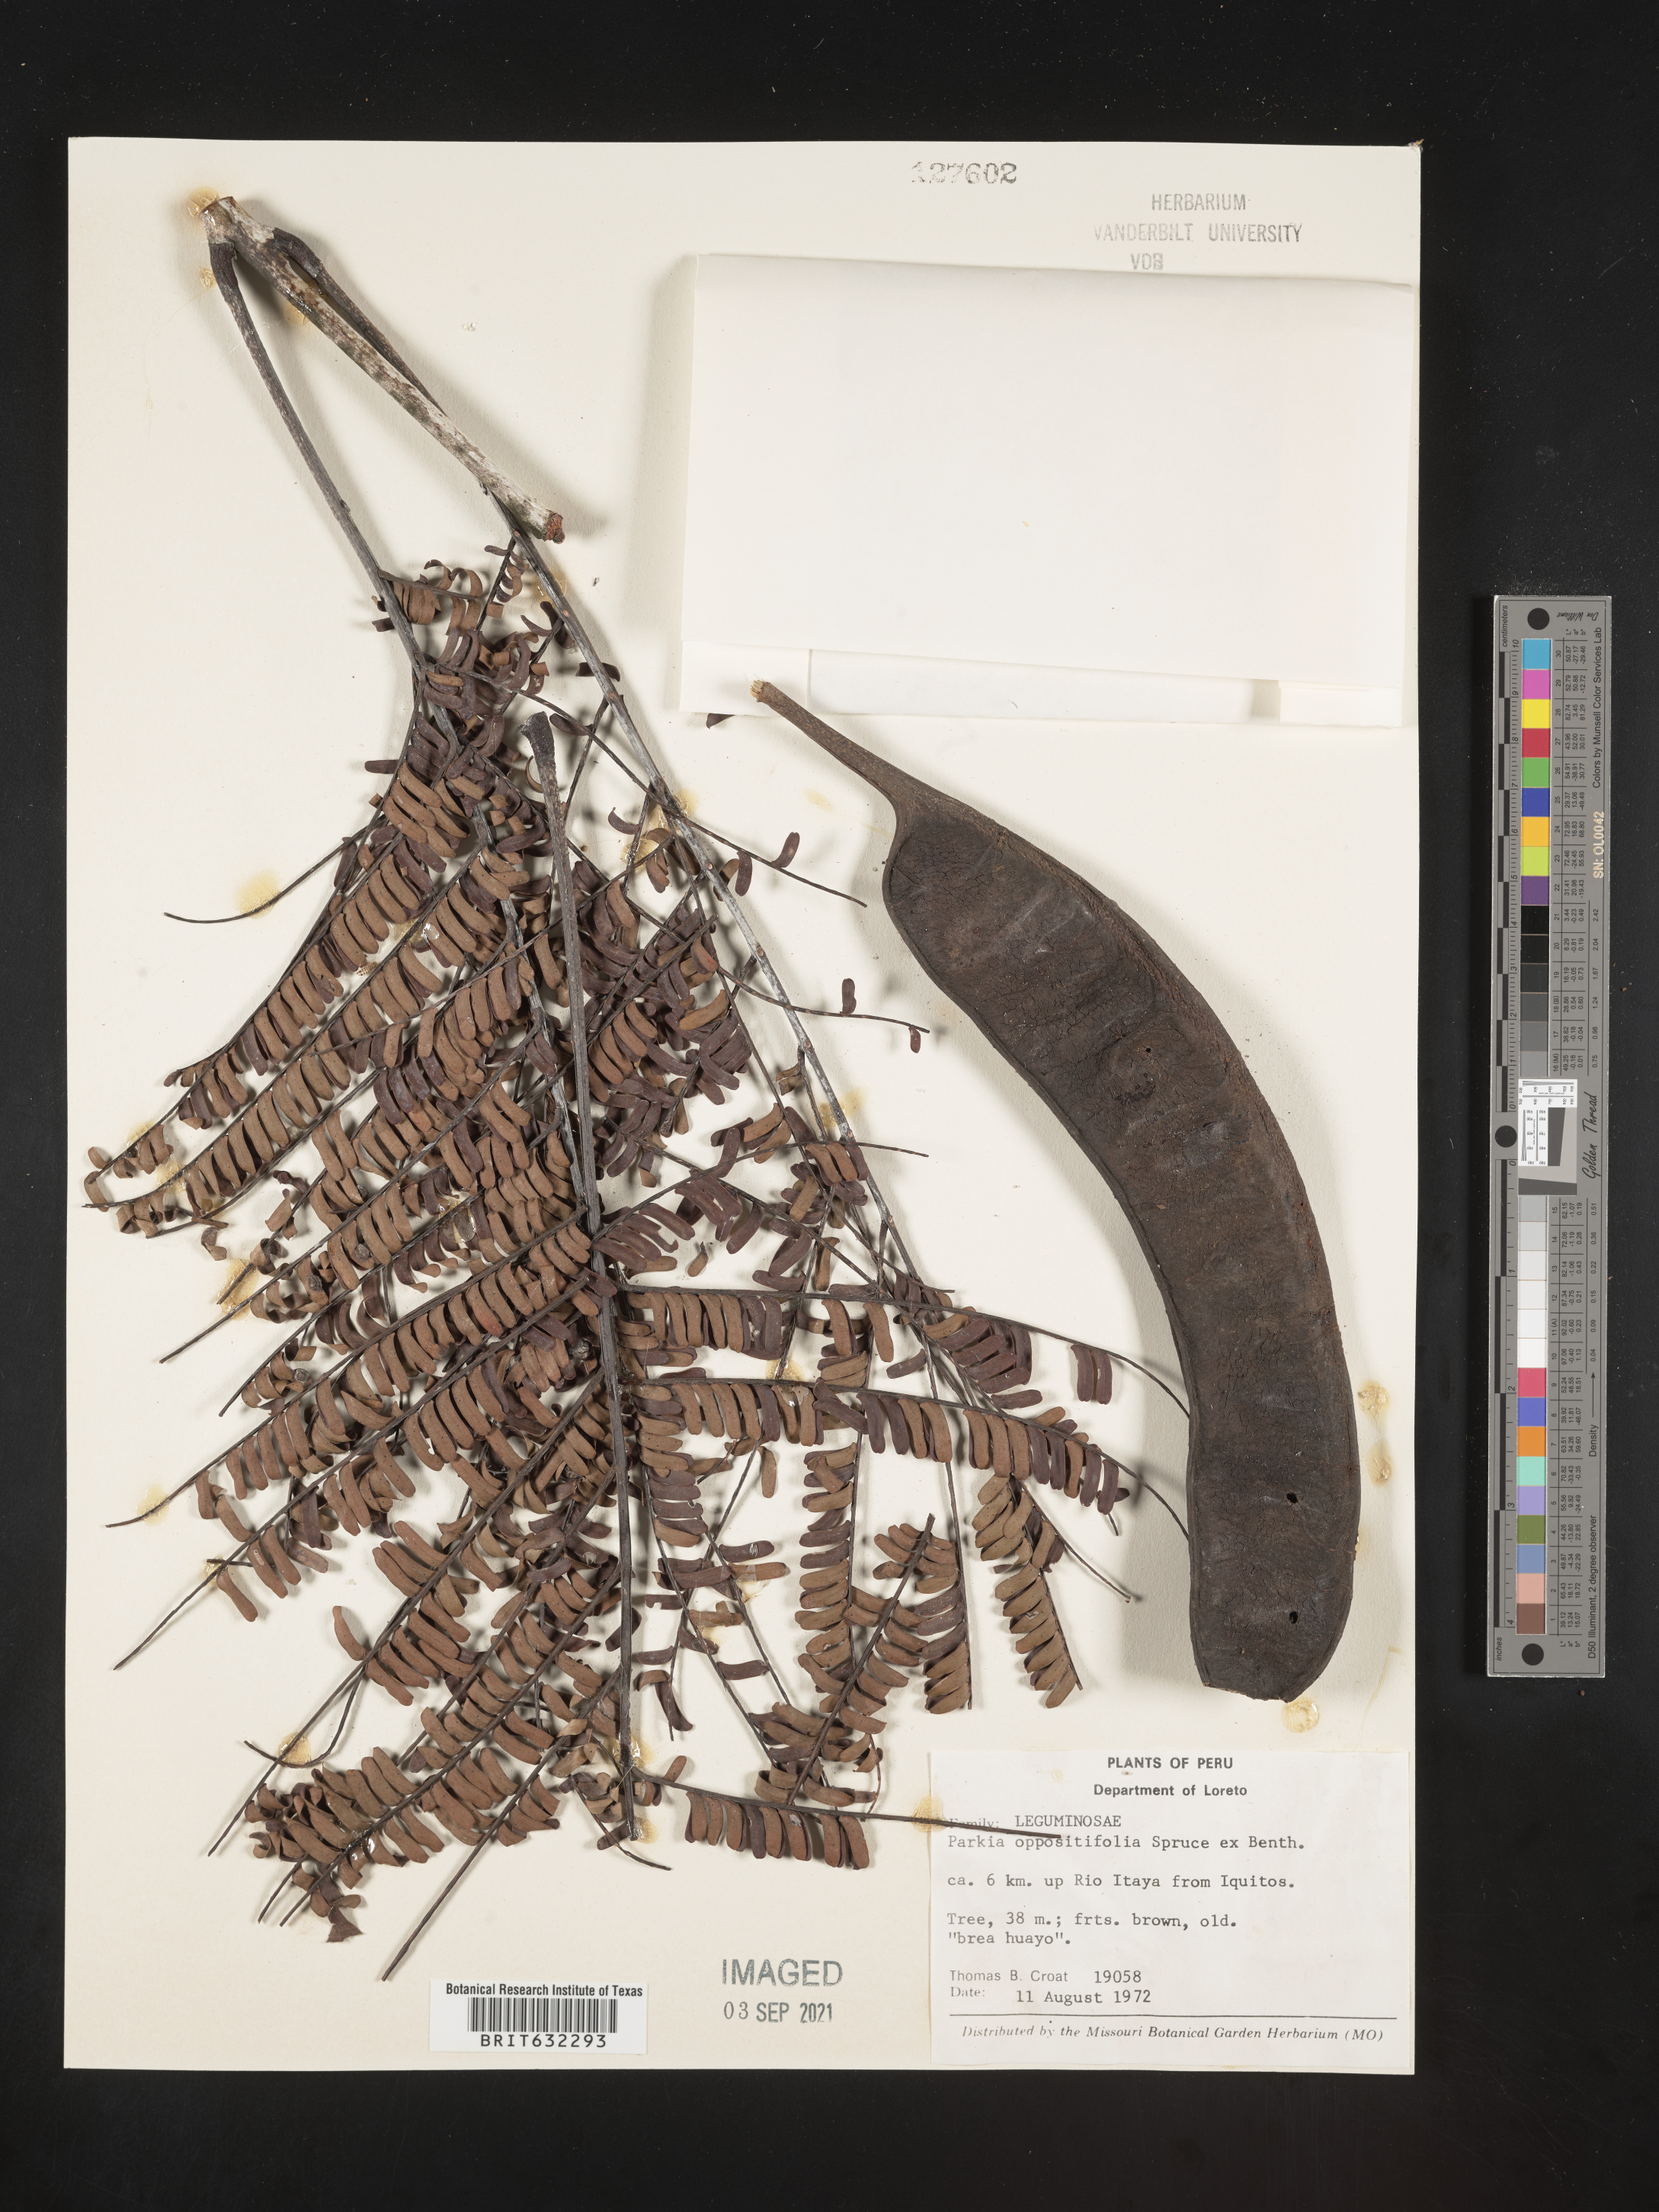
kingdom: Plantae
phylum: Tracheophyta
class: Magnoliopsida
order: Fabales
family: Fabaceae
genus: Parkia
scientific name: Parkia
